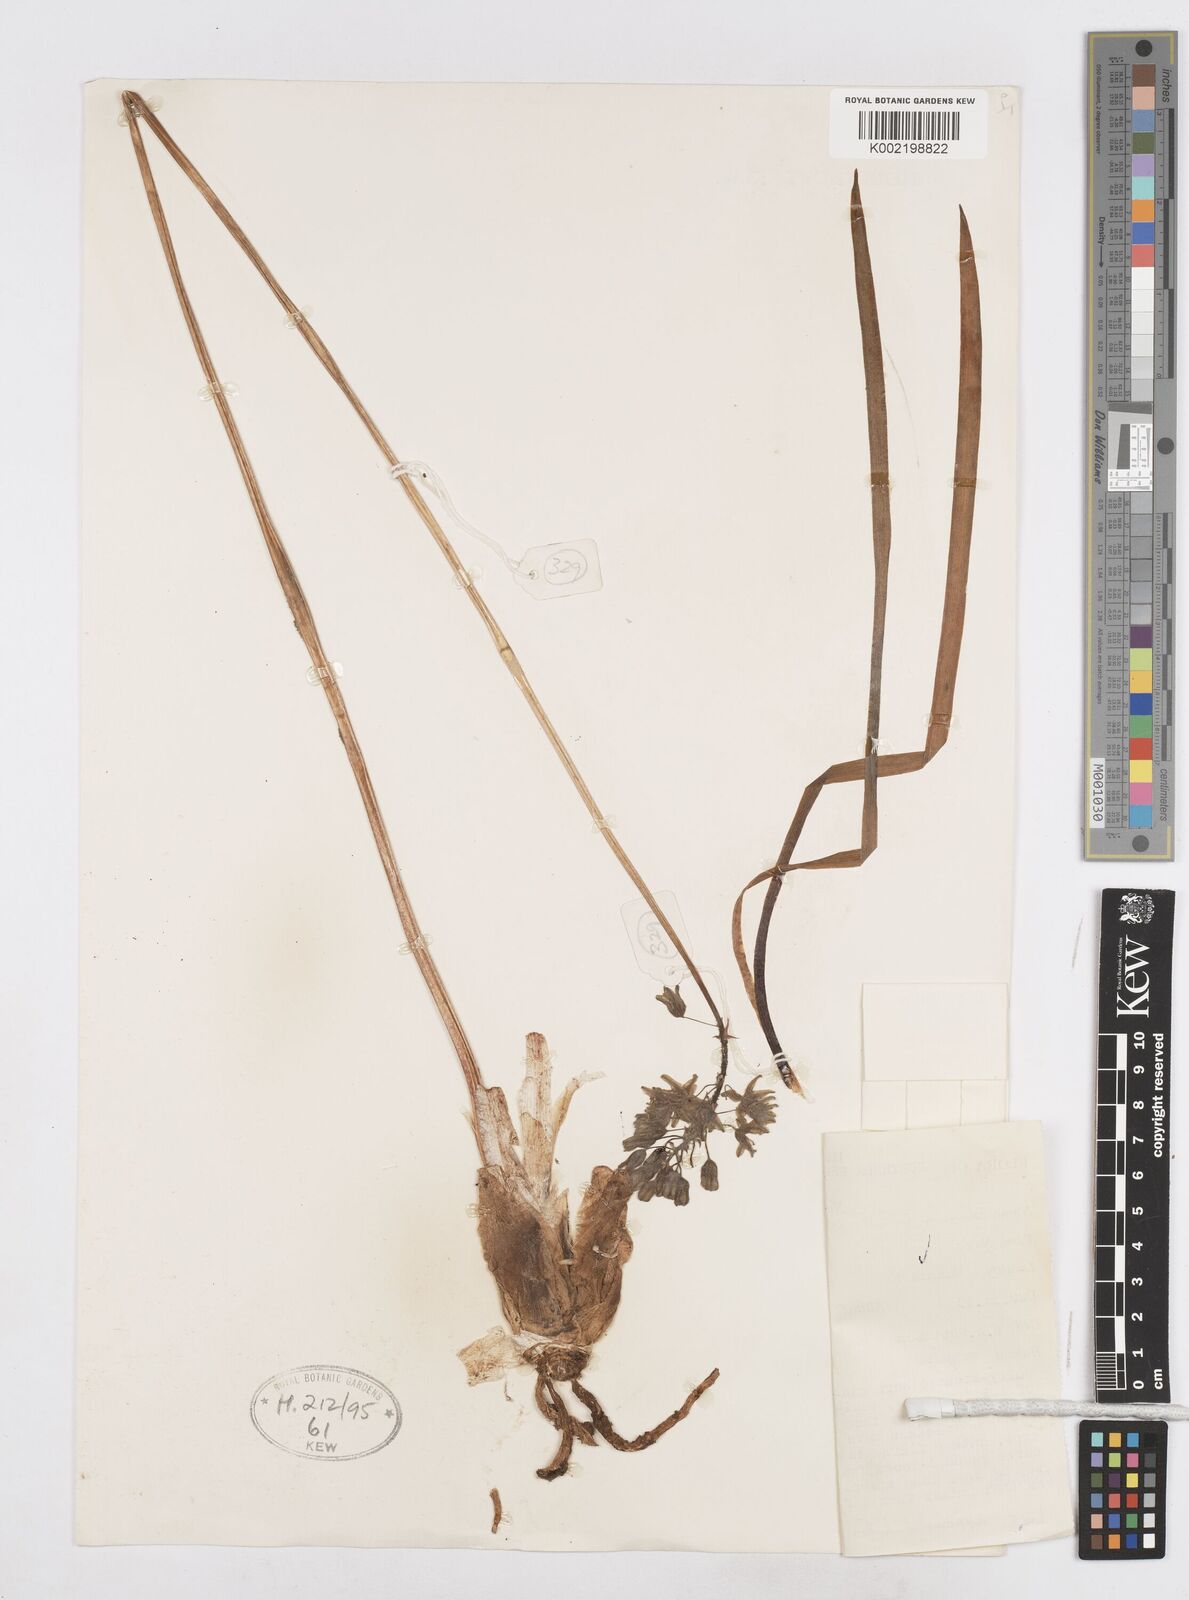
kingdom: Plantae
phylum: Tracheophyta
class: Liliopsida
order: Asparagales
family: Asparagaceae
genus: Drimia
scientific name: Drimia
